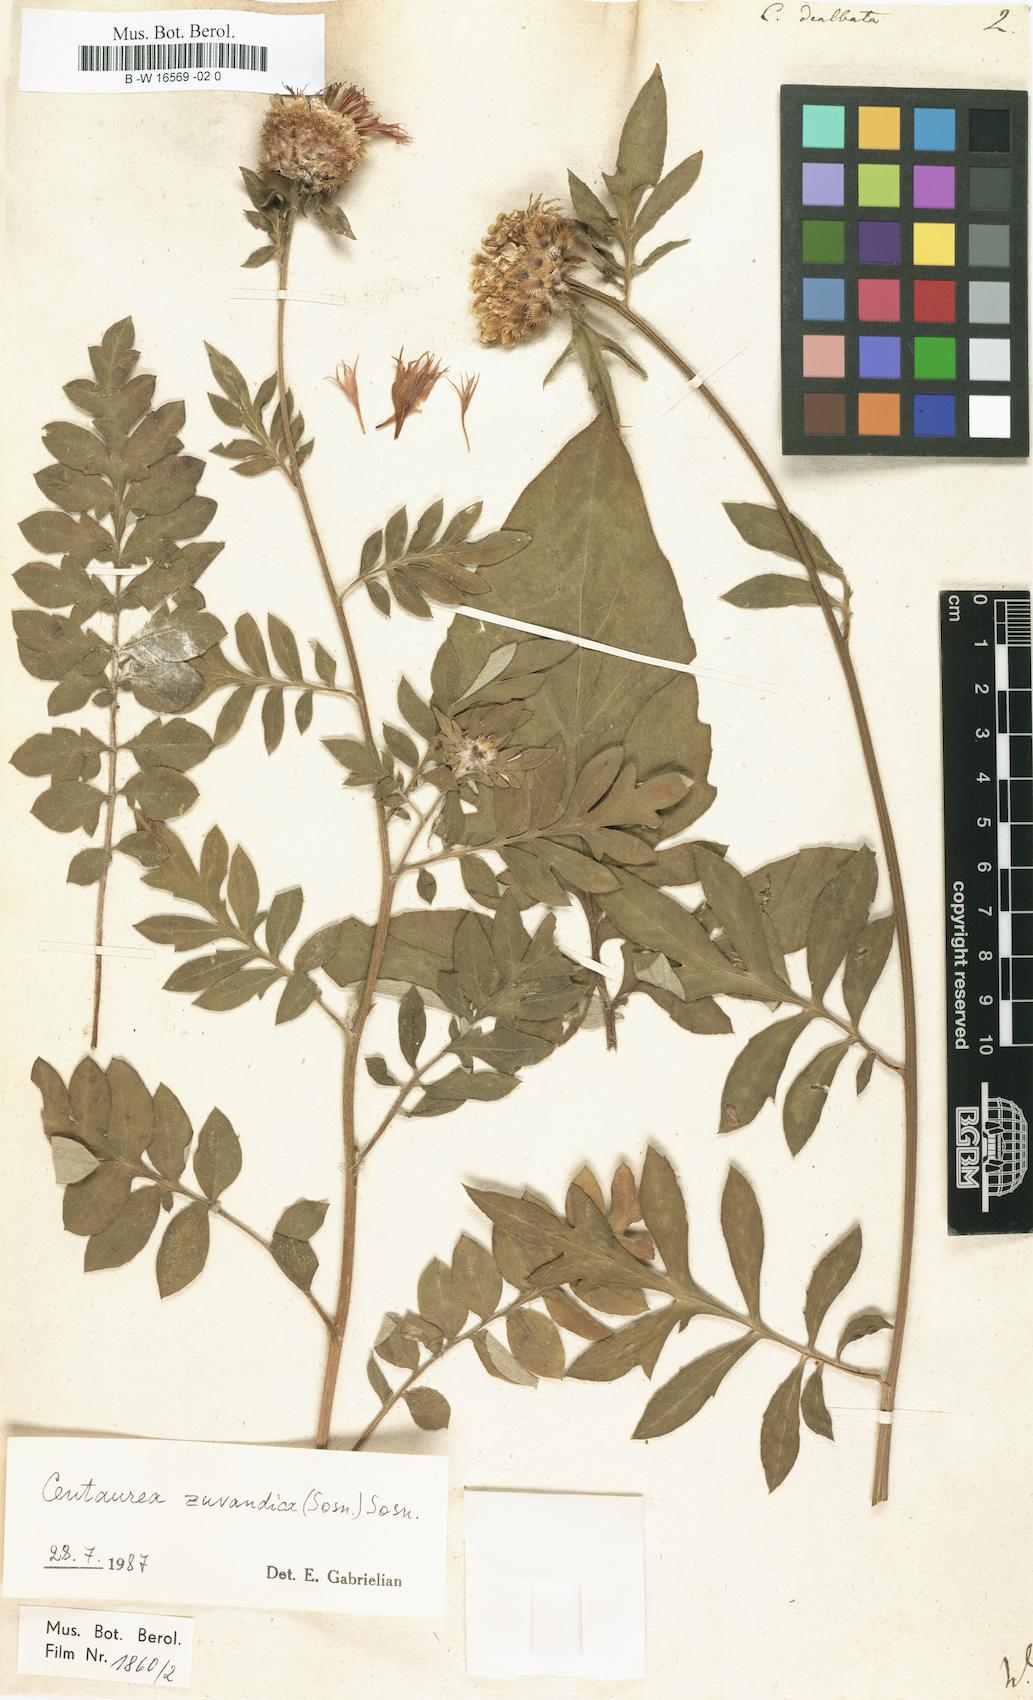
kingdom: Plantae
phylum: Tracheophyta
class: Magnoliopsida
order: Asterales
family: Asteraceae
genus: Psephellus
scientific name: Psephellus dealbatus
